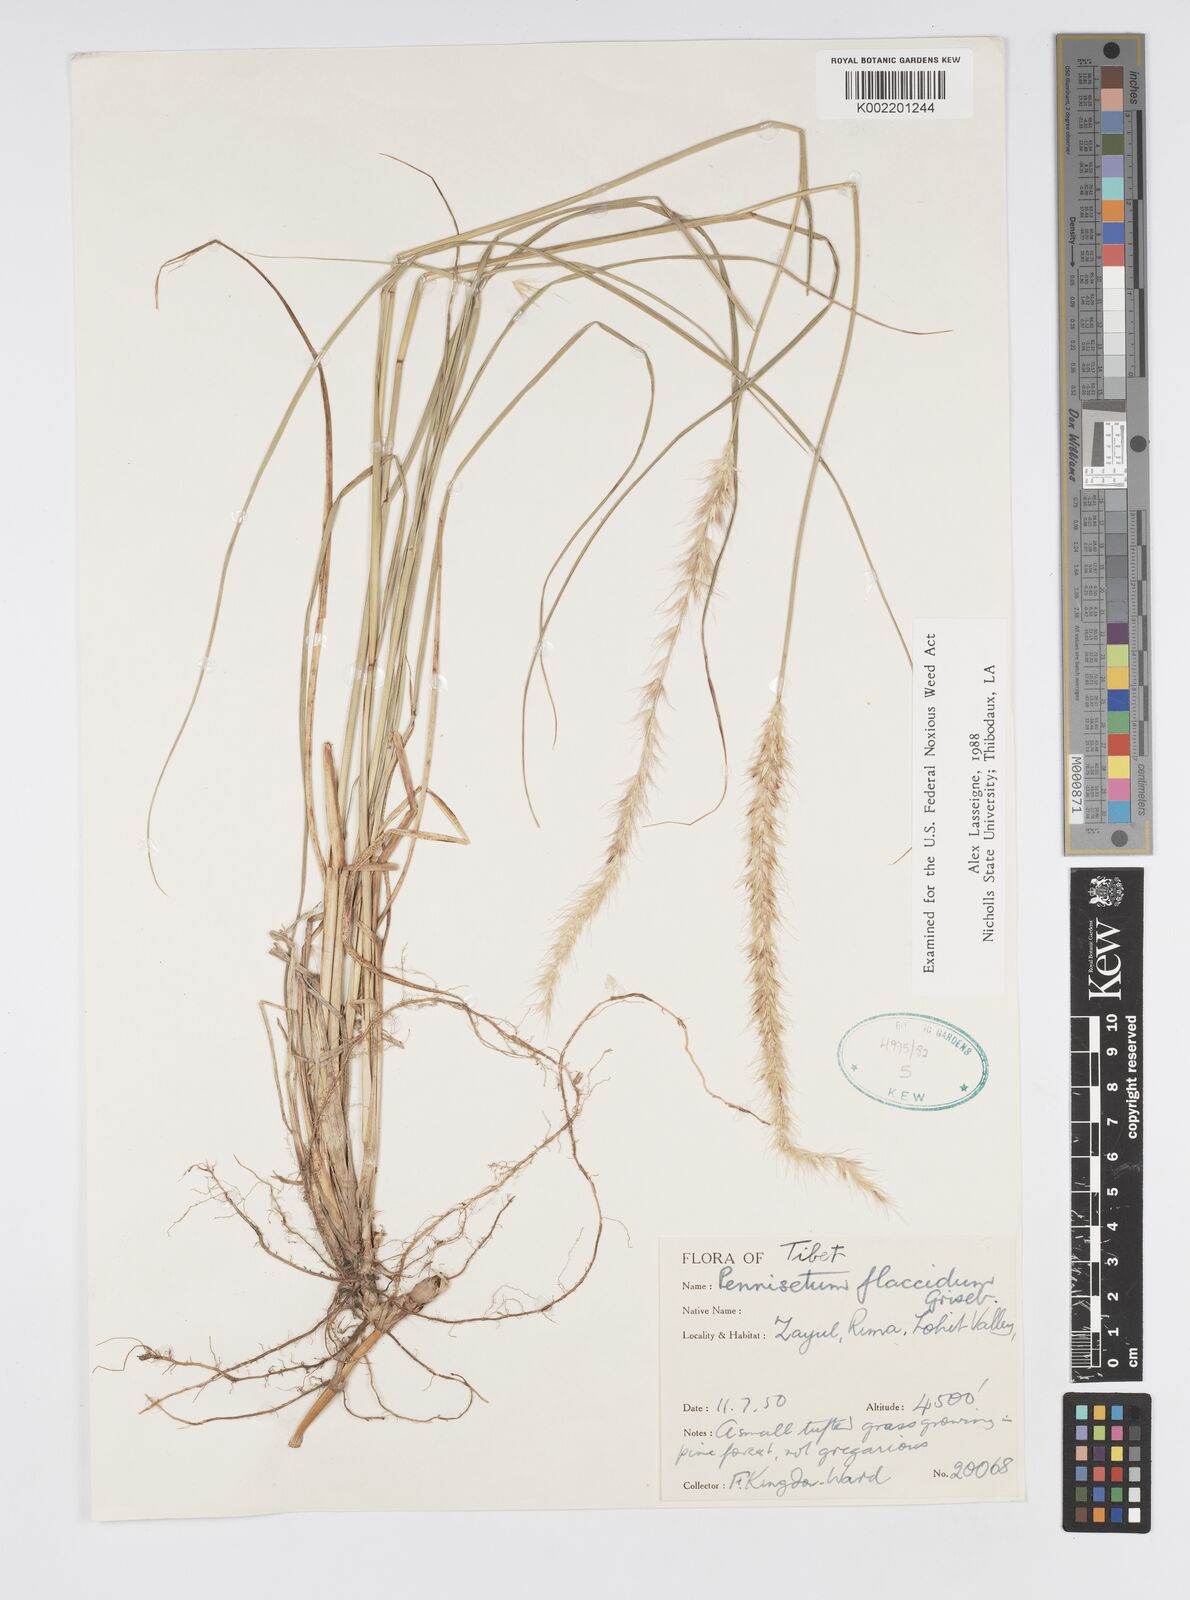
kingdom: Plantae
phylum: Tracheophyta
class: Liliopsida
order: Poales
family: Poaceae
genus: Cenchrus
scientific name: Cenchrus flaccidus
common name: Flaccid grass
